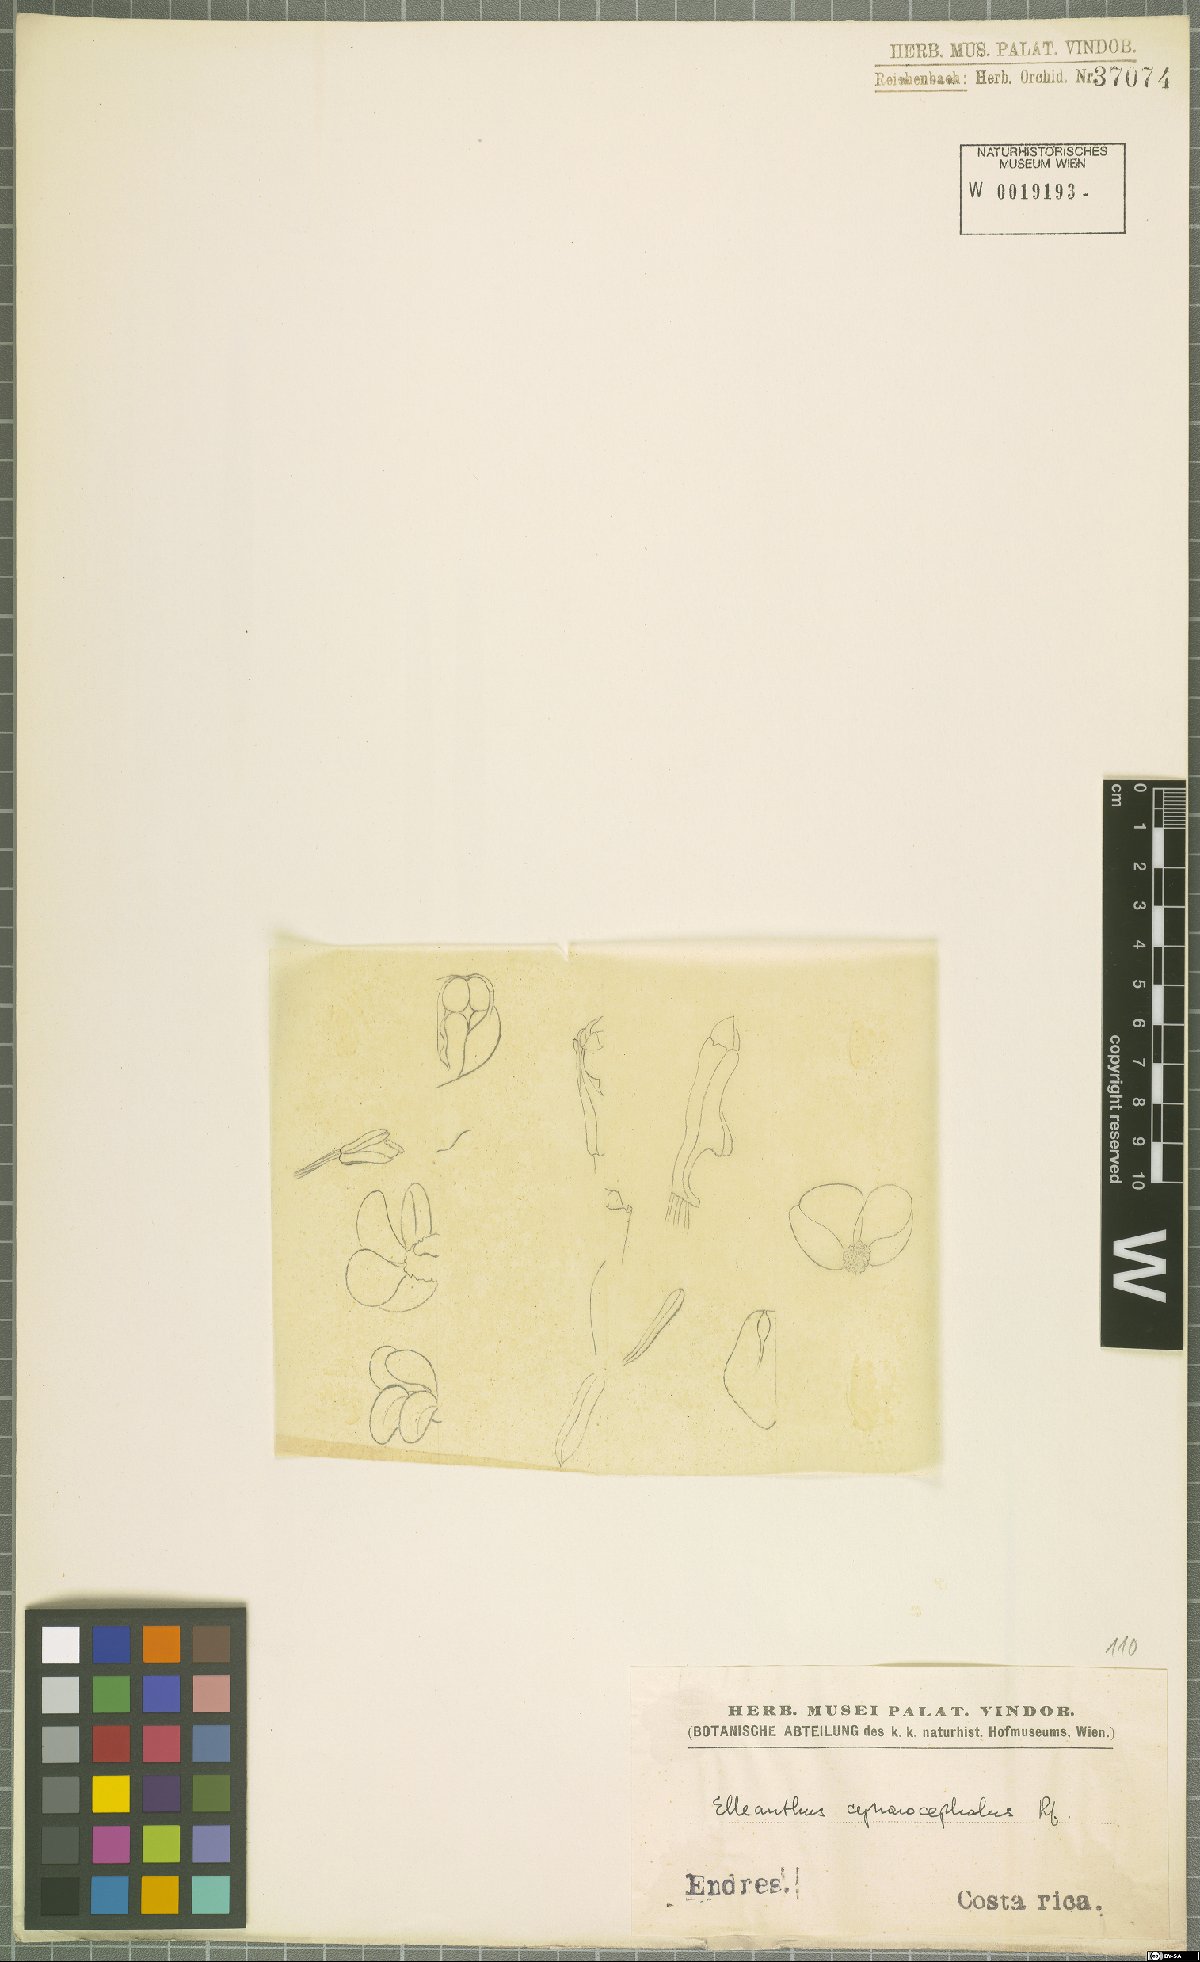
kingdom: Plantae
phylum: Tracheophyta
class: Liliopsida
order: Asparagales
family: Orchidaceae
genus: Elleanthus
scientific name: Elleanthus capitatus
